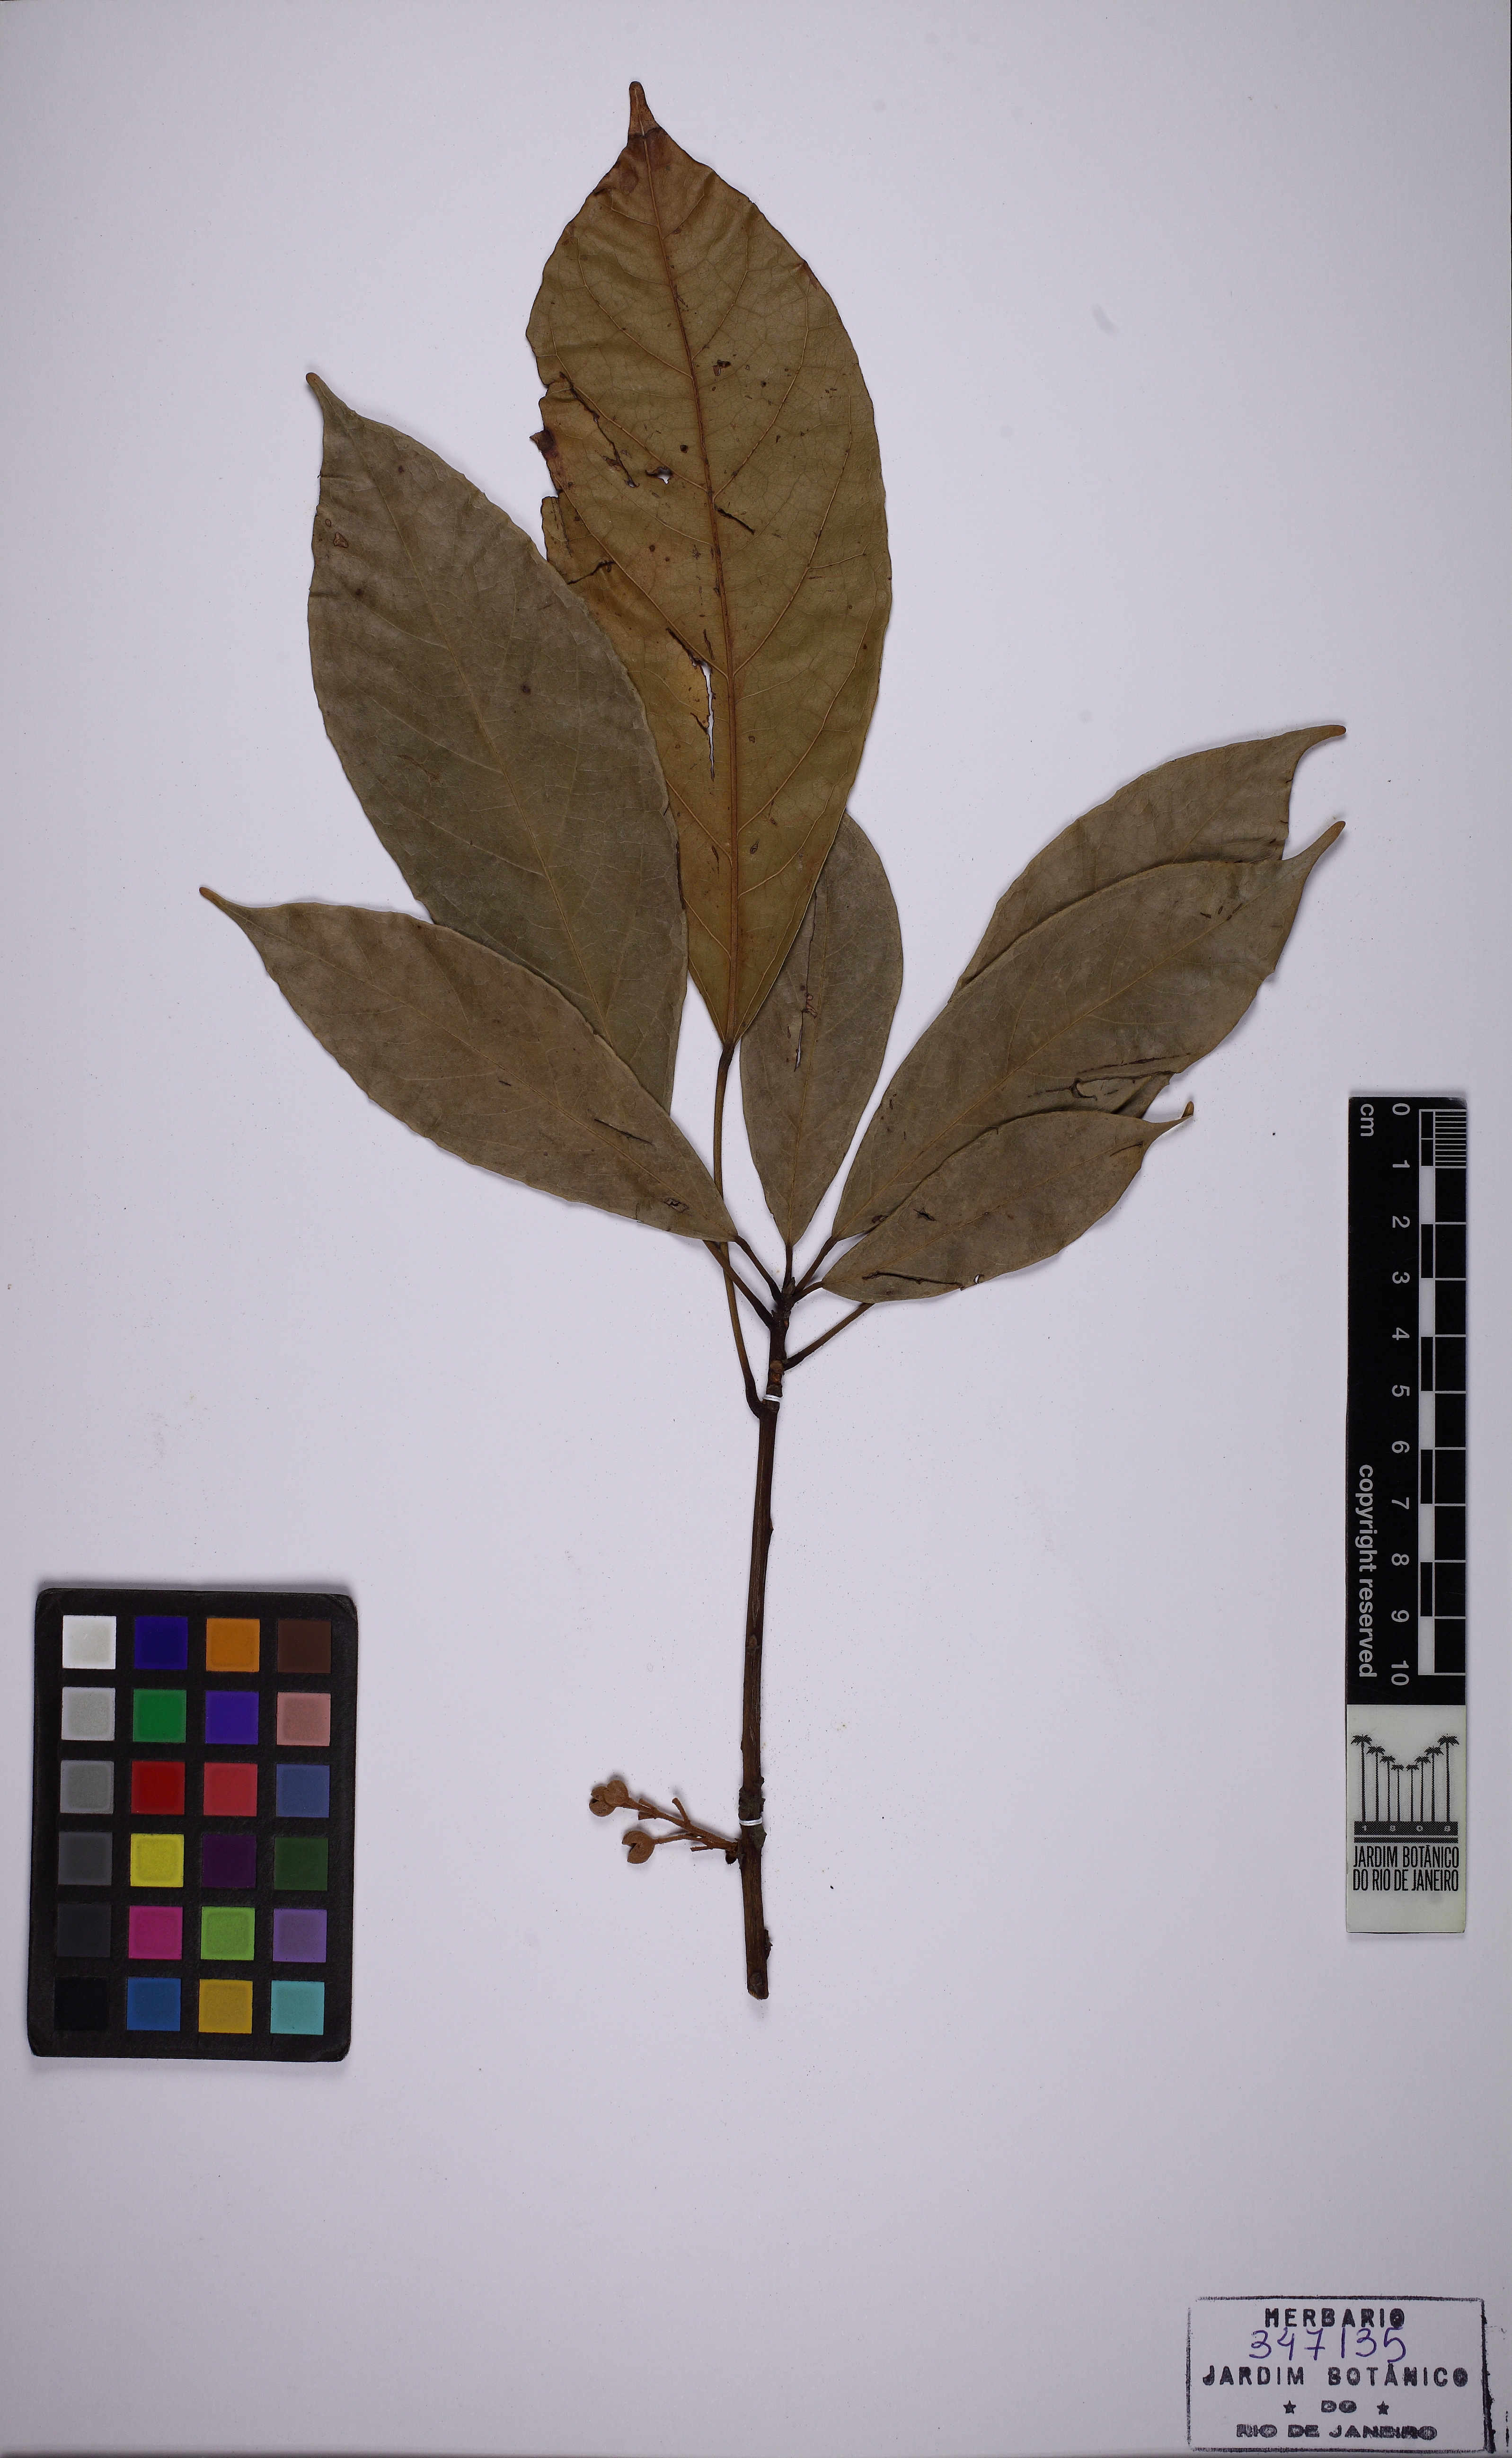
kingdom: Plantae
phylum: Tracheophyta
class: Magnoliopsida
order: Malvales
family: Malvaceae
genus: Cola
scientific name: Cola acuminata
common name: True kola
